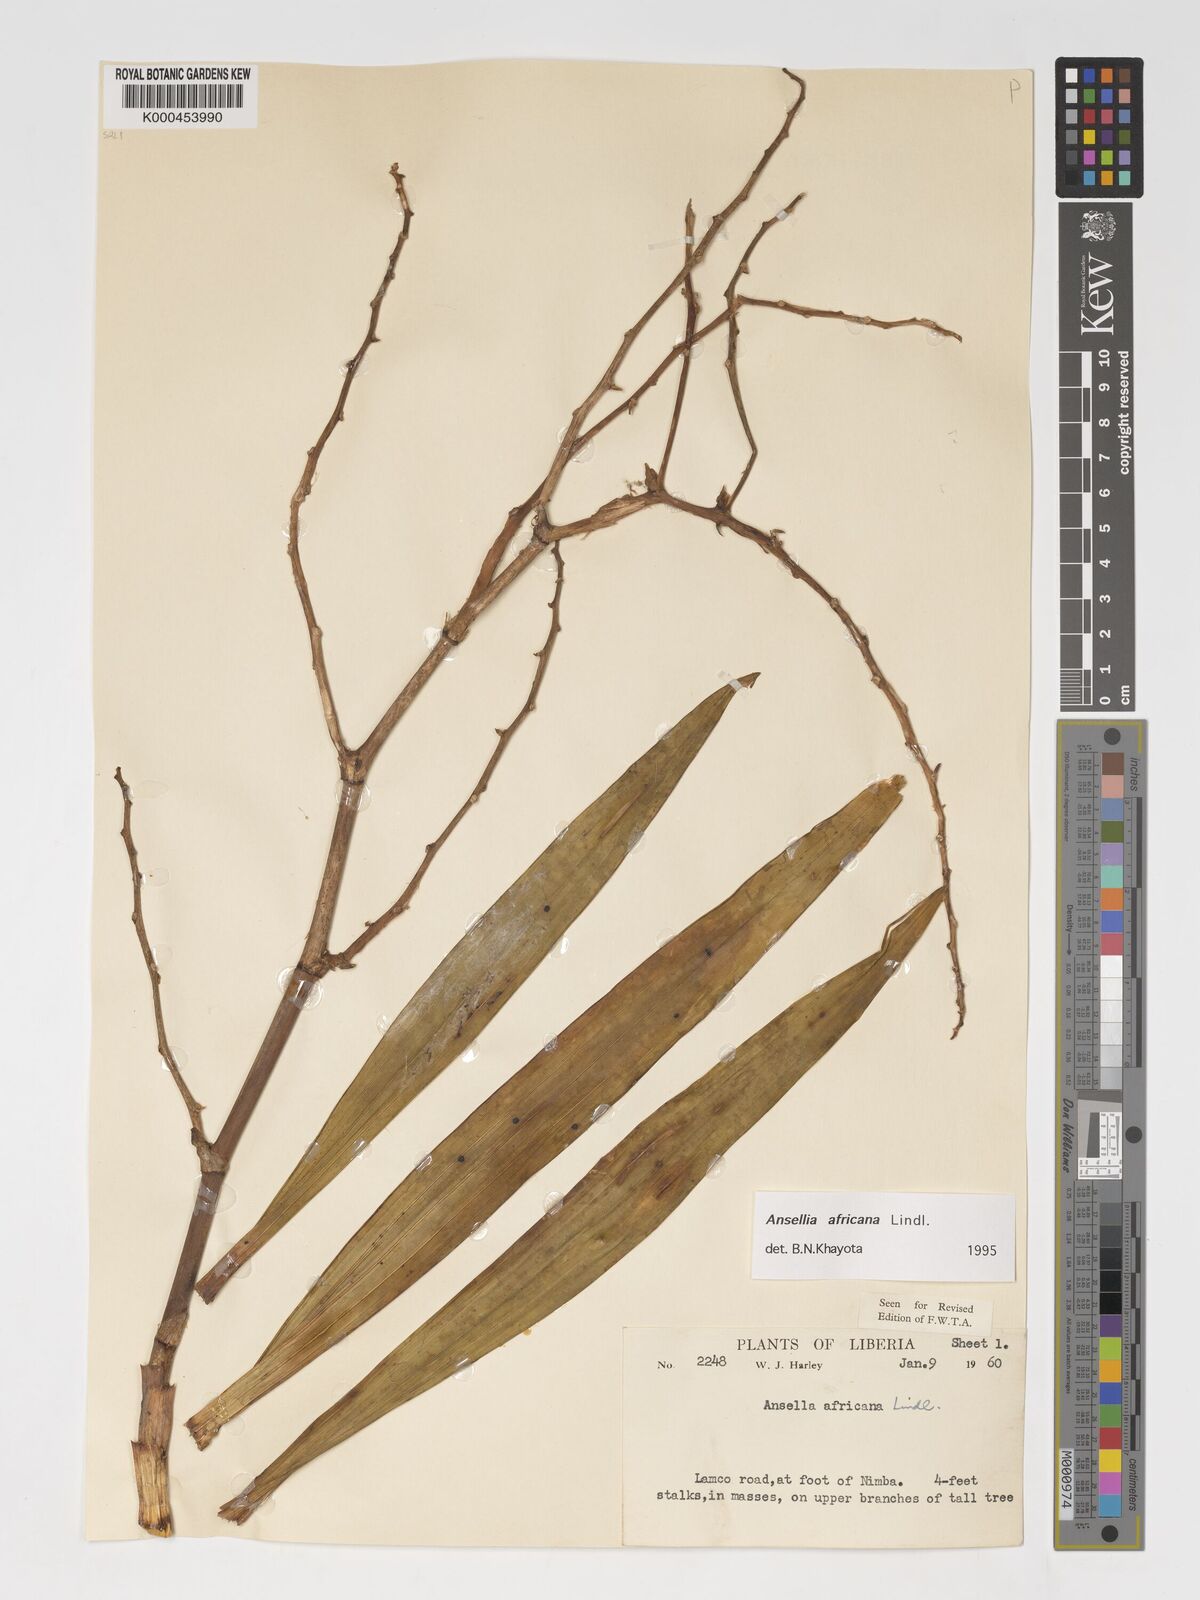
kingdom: Plantae
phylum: Tracheophyta
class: Liliopsida
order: Asparagales
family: Orchidaceae
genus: Ansellia
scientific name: Ansellia africana
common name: African ansellia
